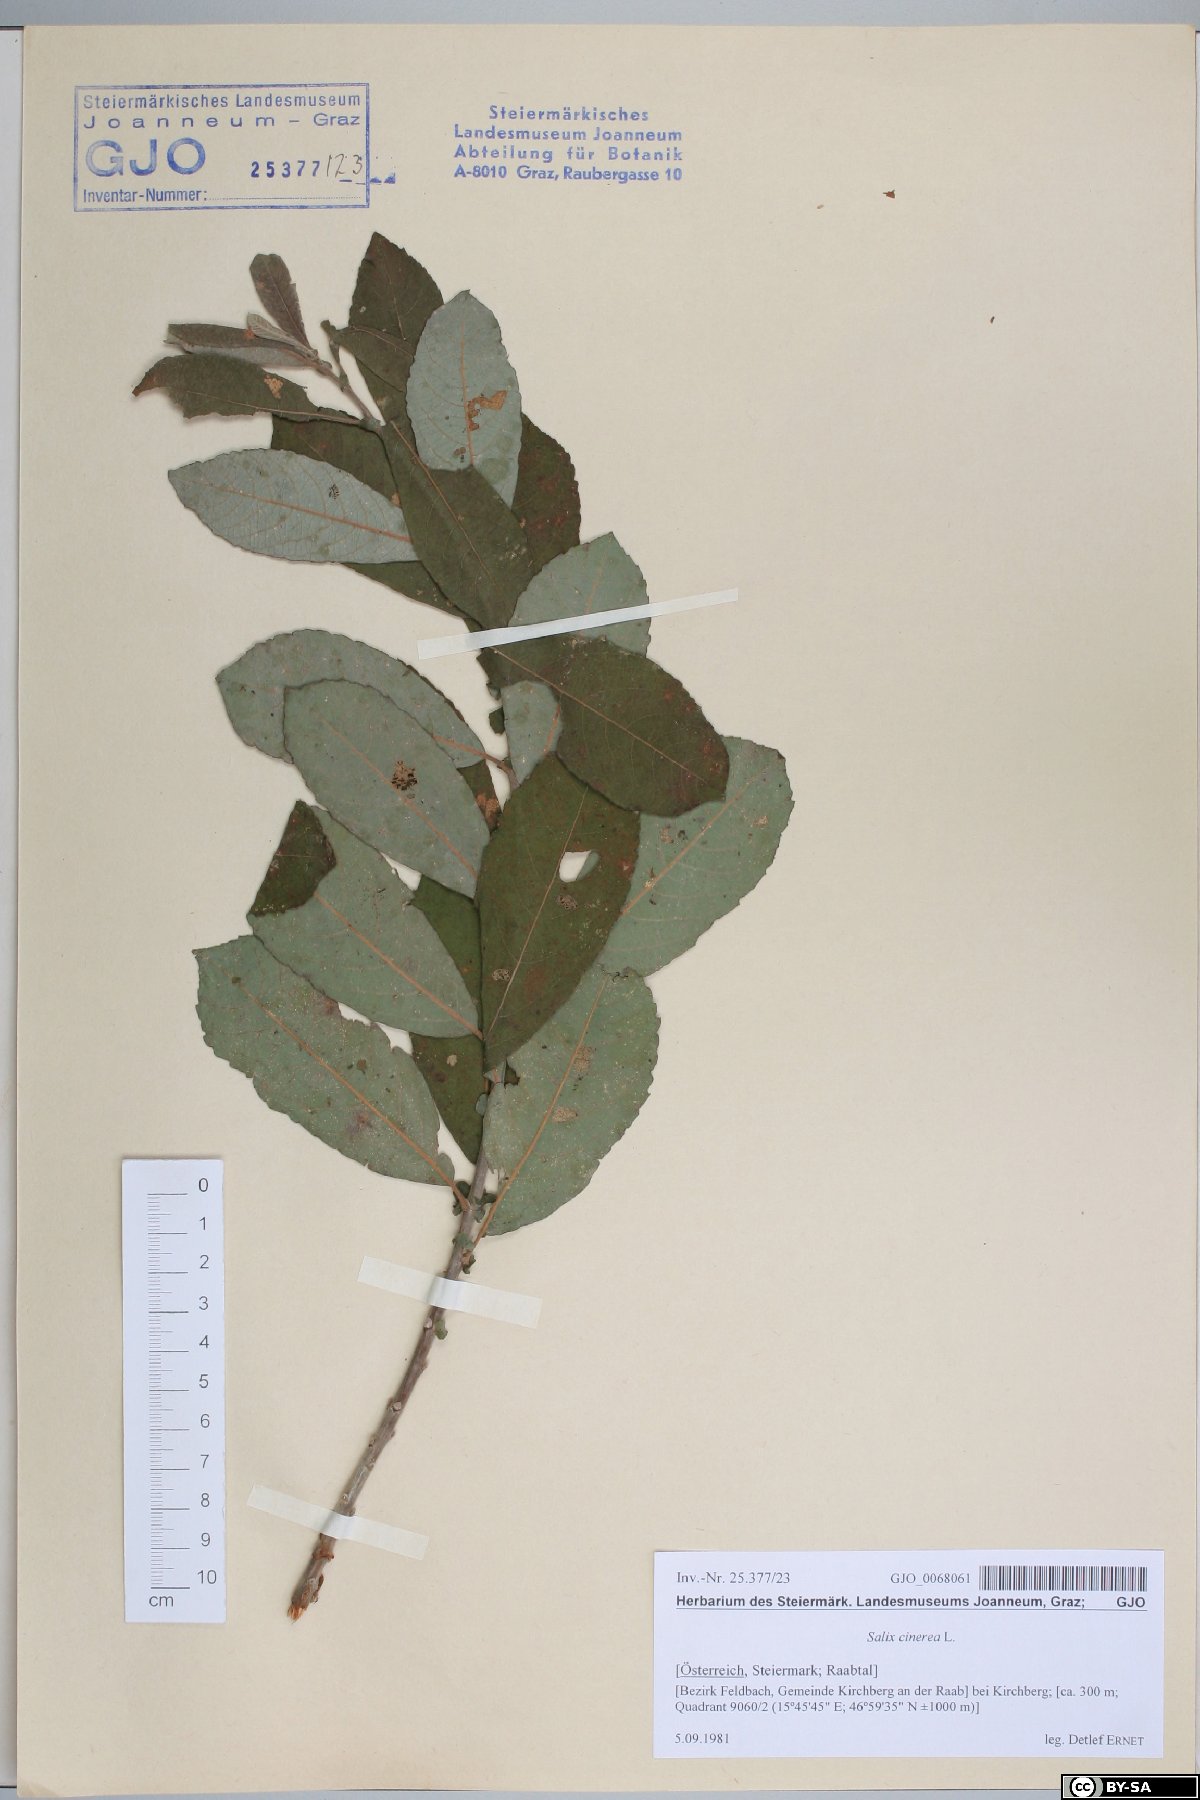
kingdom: Plantae
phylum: Tracheophyta
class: Magnoliopsida
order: Malpighiales
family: Salicaceae
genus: Salix
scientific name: Salix cinerea
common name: Common sallow
